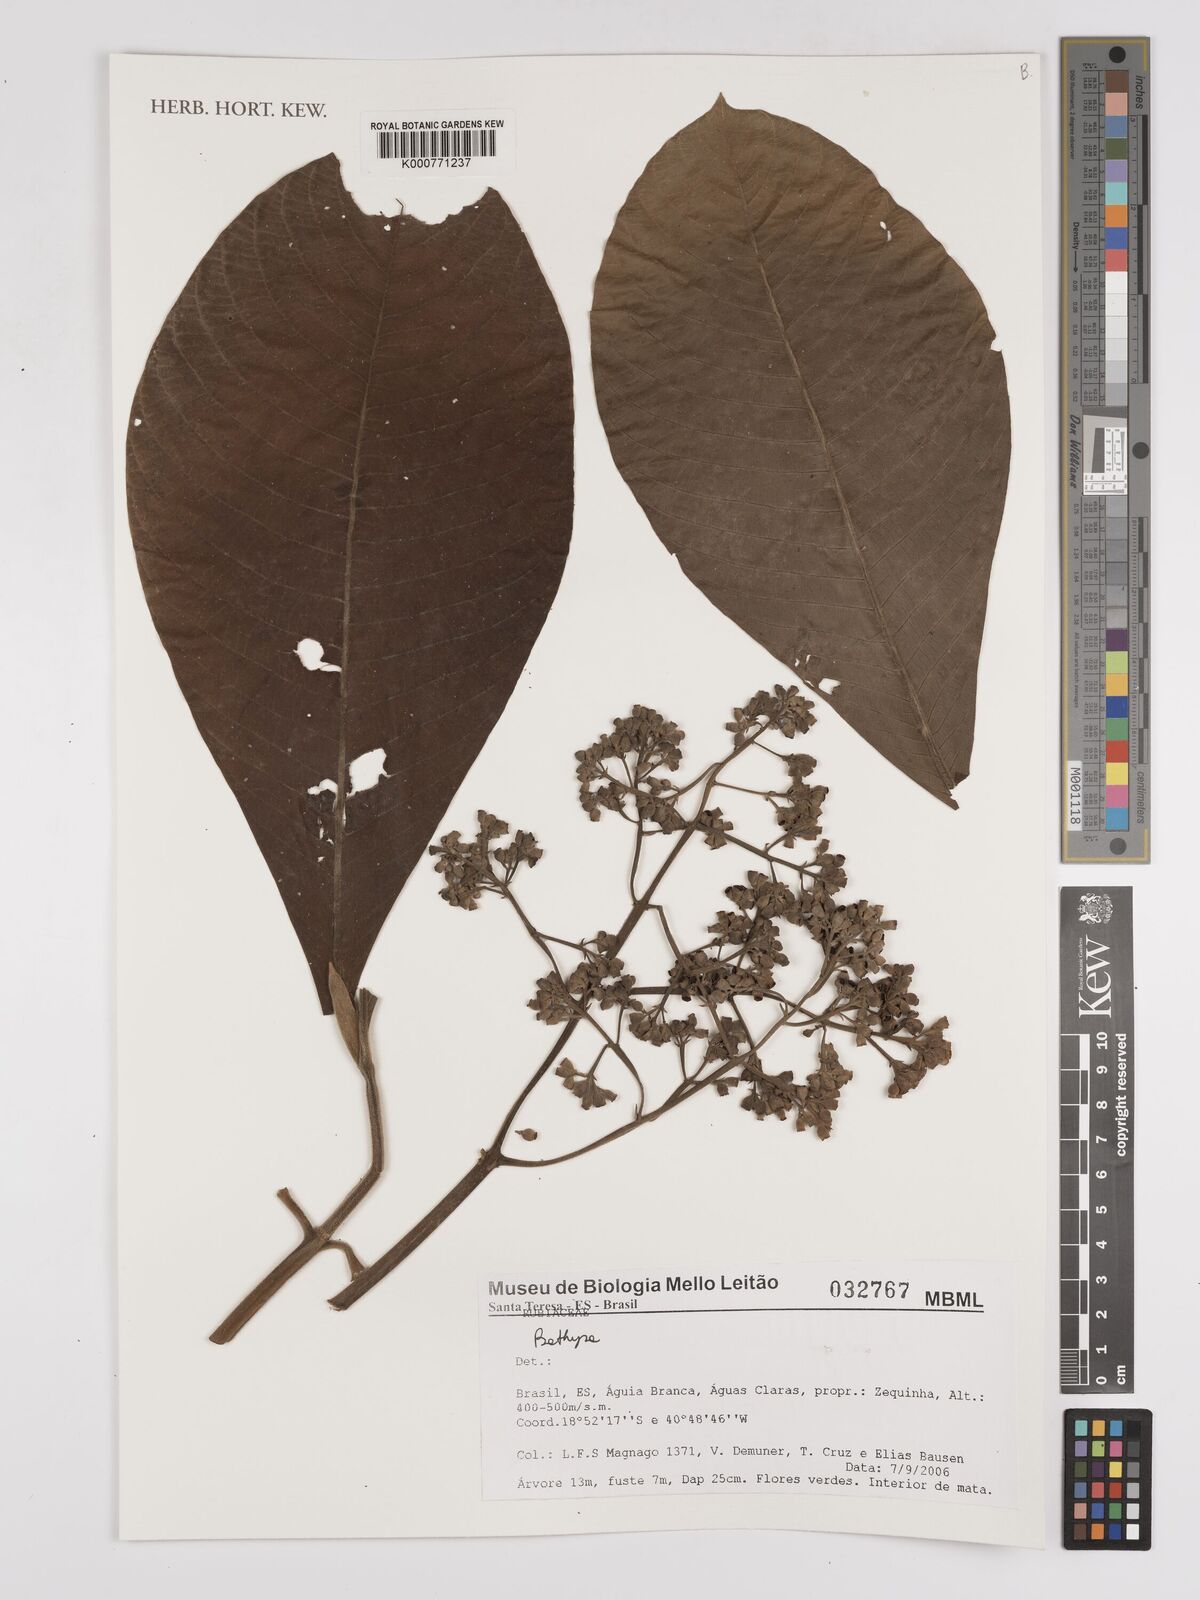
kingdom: Plantae
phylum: Tracheophyta
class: Magnoliopsida
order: Gentianales
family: Rubiaceae
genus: Bathysa
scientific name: Bathysa
